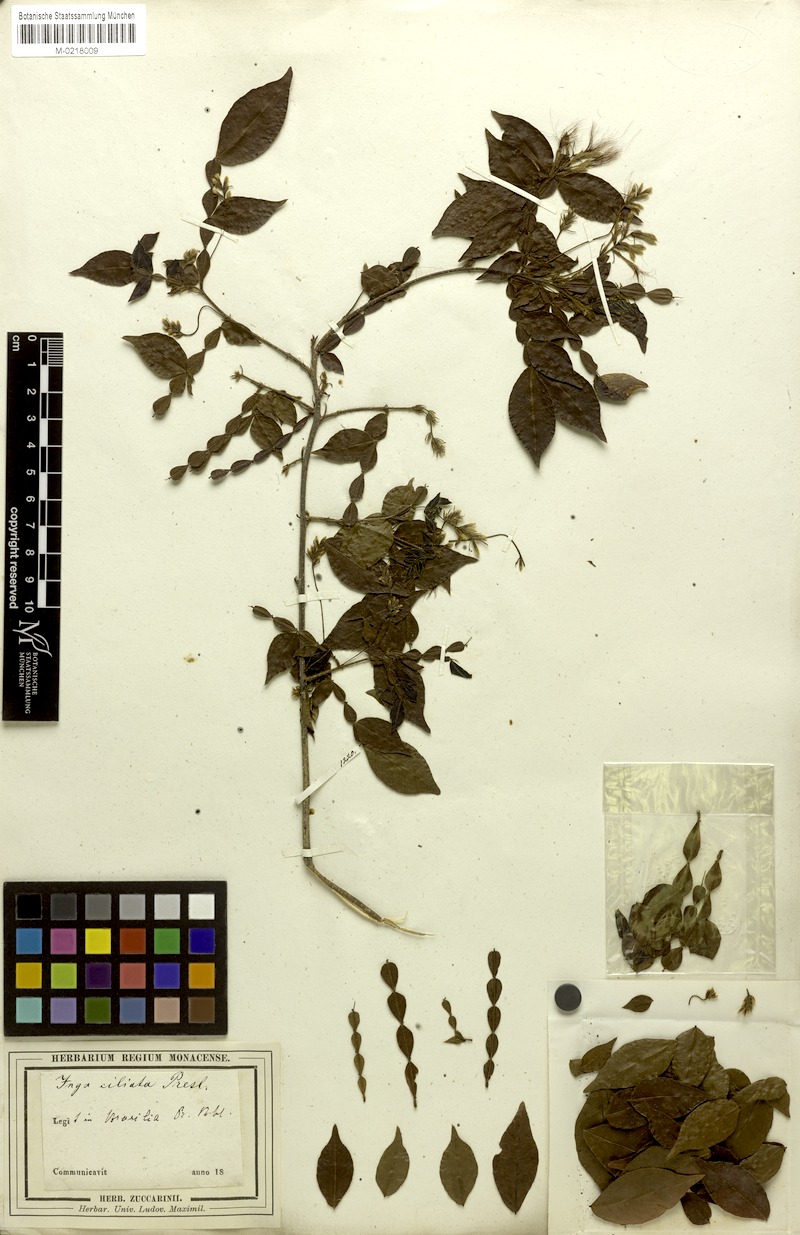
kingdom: Plantae
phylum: Tracheophyta
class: Magnoliopsida
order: Fabales
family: Fabaceae
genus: Inga
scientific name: Inga ciliata
